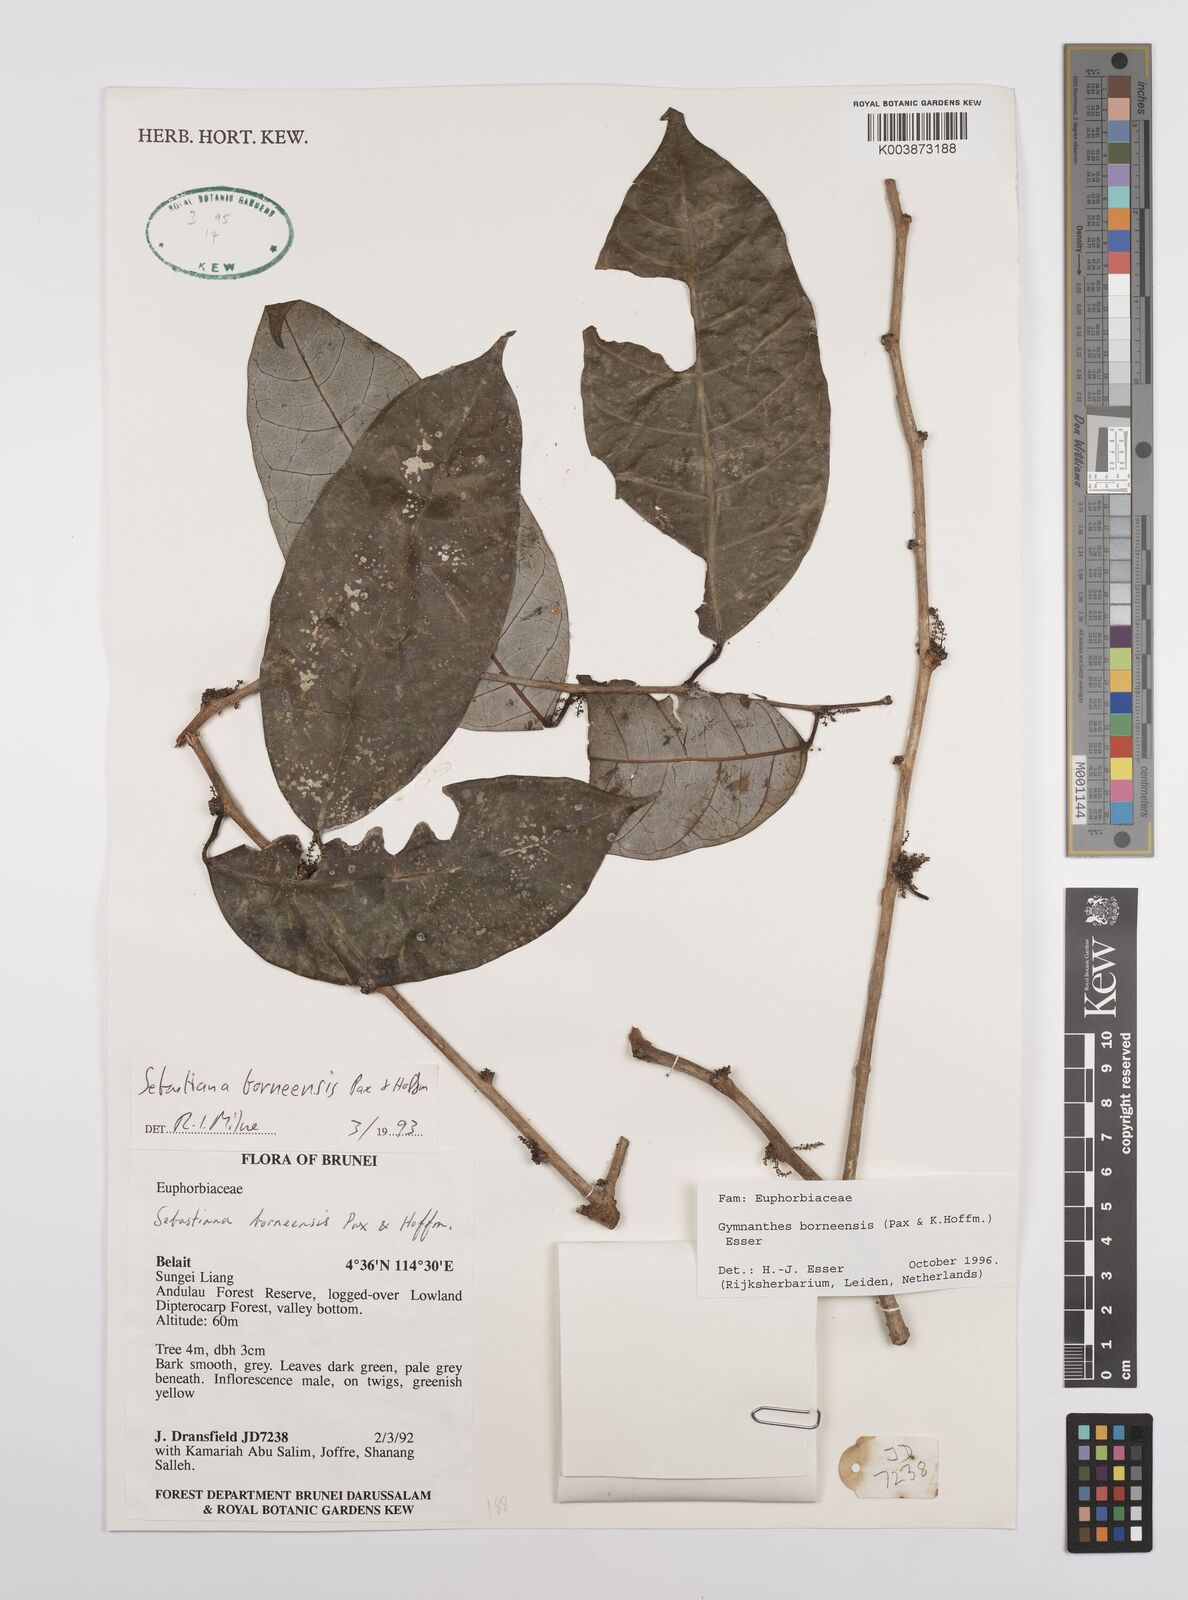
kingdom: Plantae
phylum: Tracheophyta
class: Magnoliopsida
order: Malpighiales
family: Euphorbiaceae
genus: Gymnanthes
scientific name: Gymnanthes borneensis
